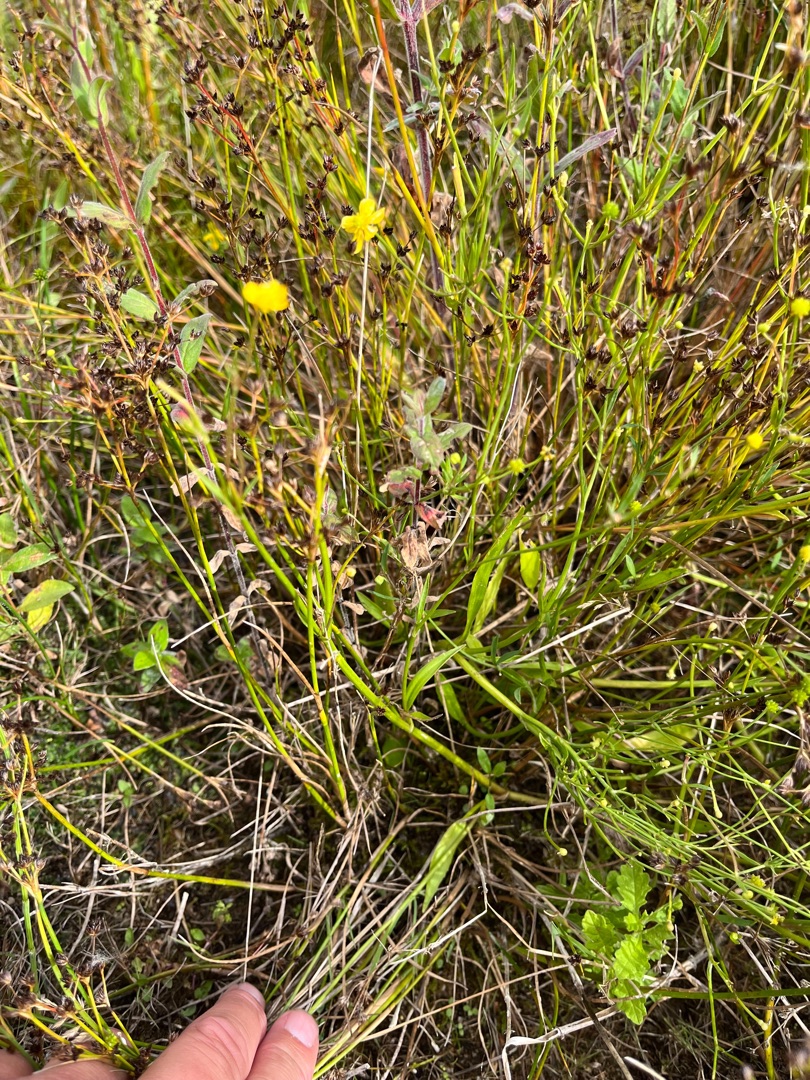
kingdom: Plantae
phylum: Tracheophyta
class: Magnoliopsida
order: Ranunculales
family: Ranunculaceae
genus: Ranunculus
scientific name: Ranunculus flammula
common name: Kær-ranunkel
